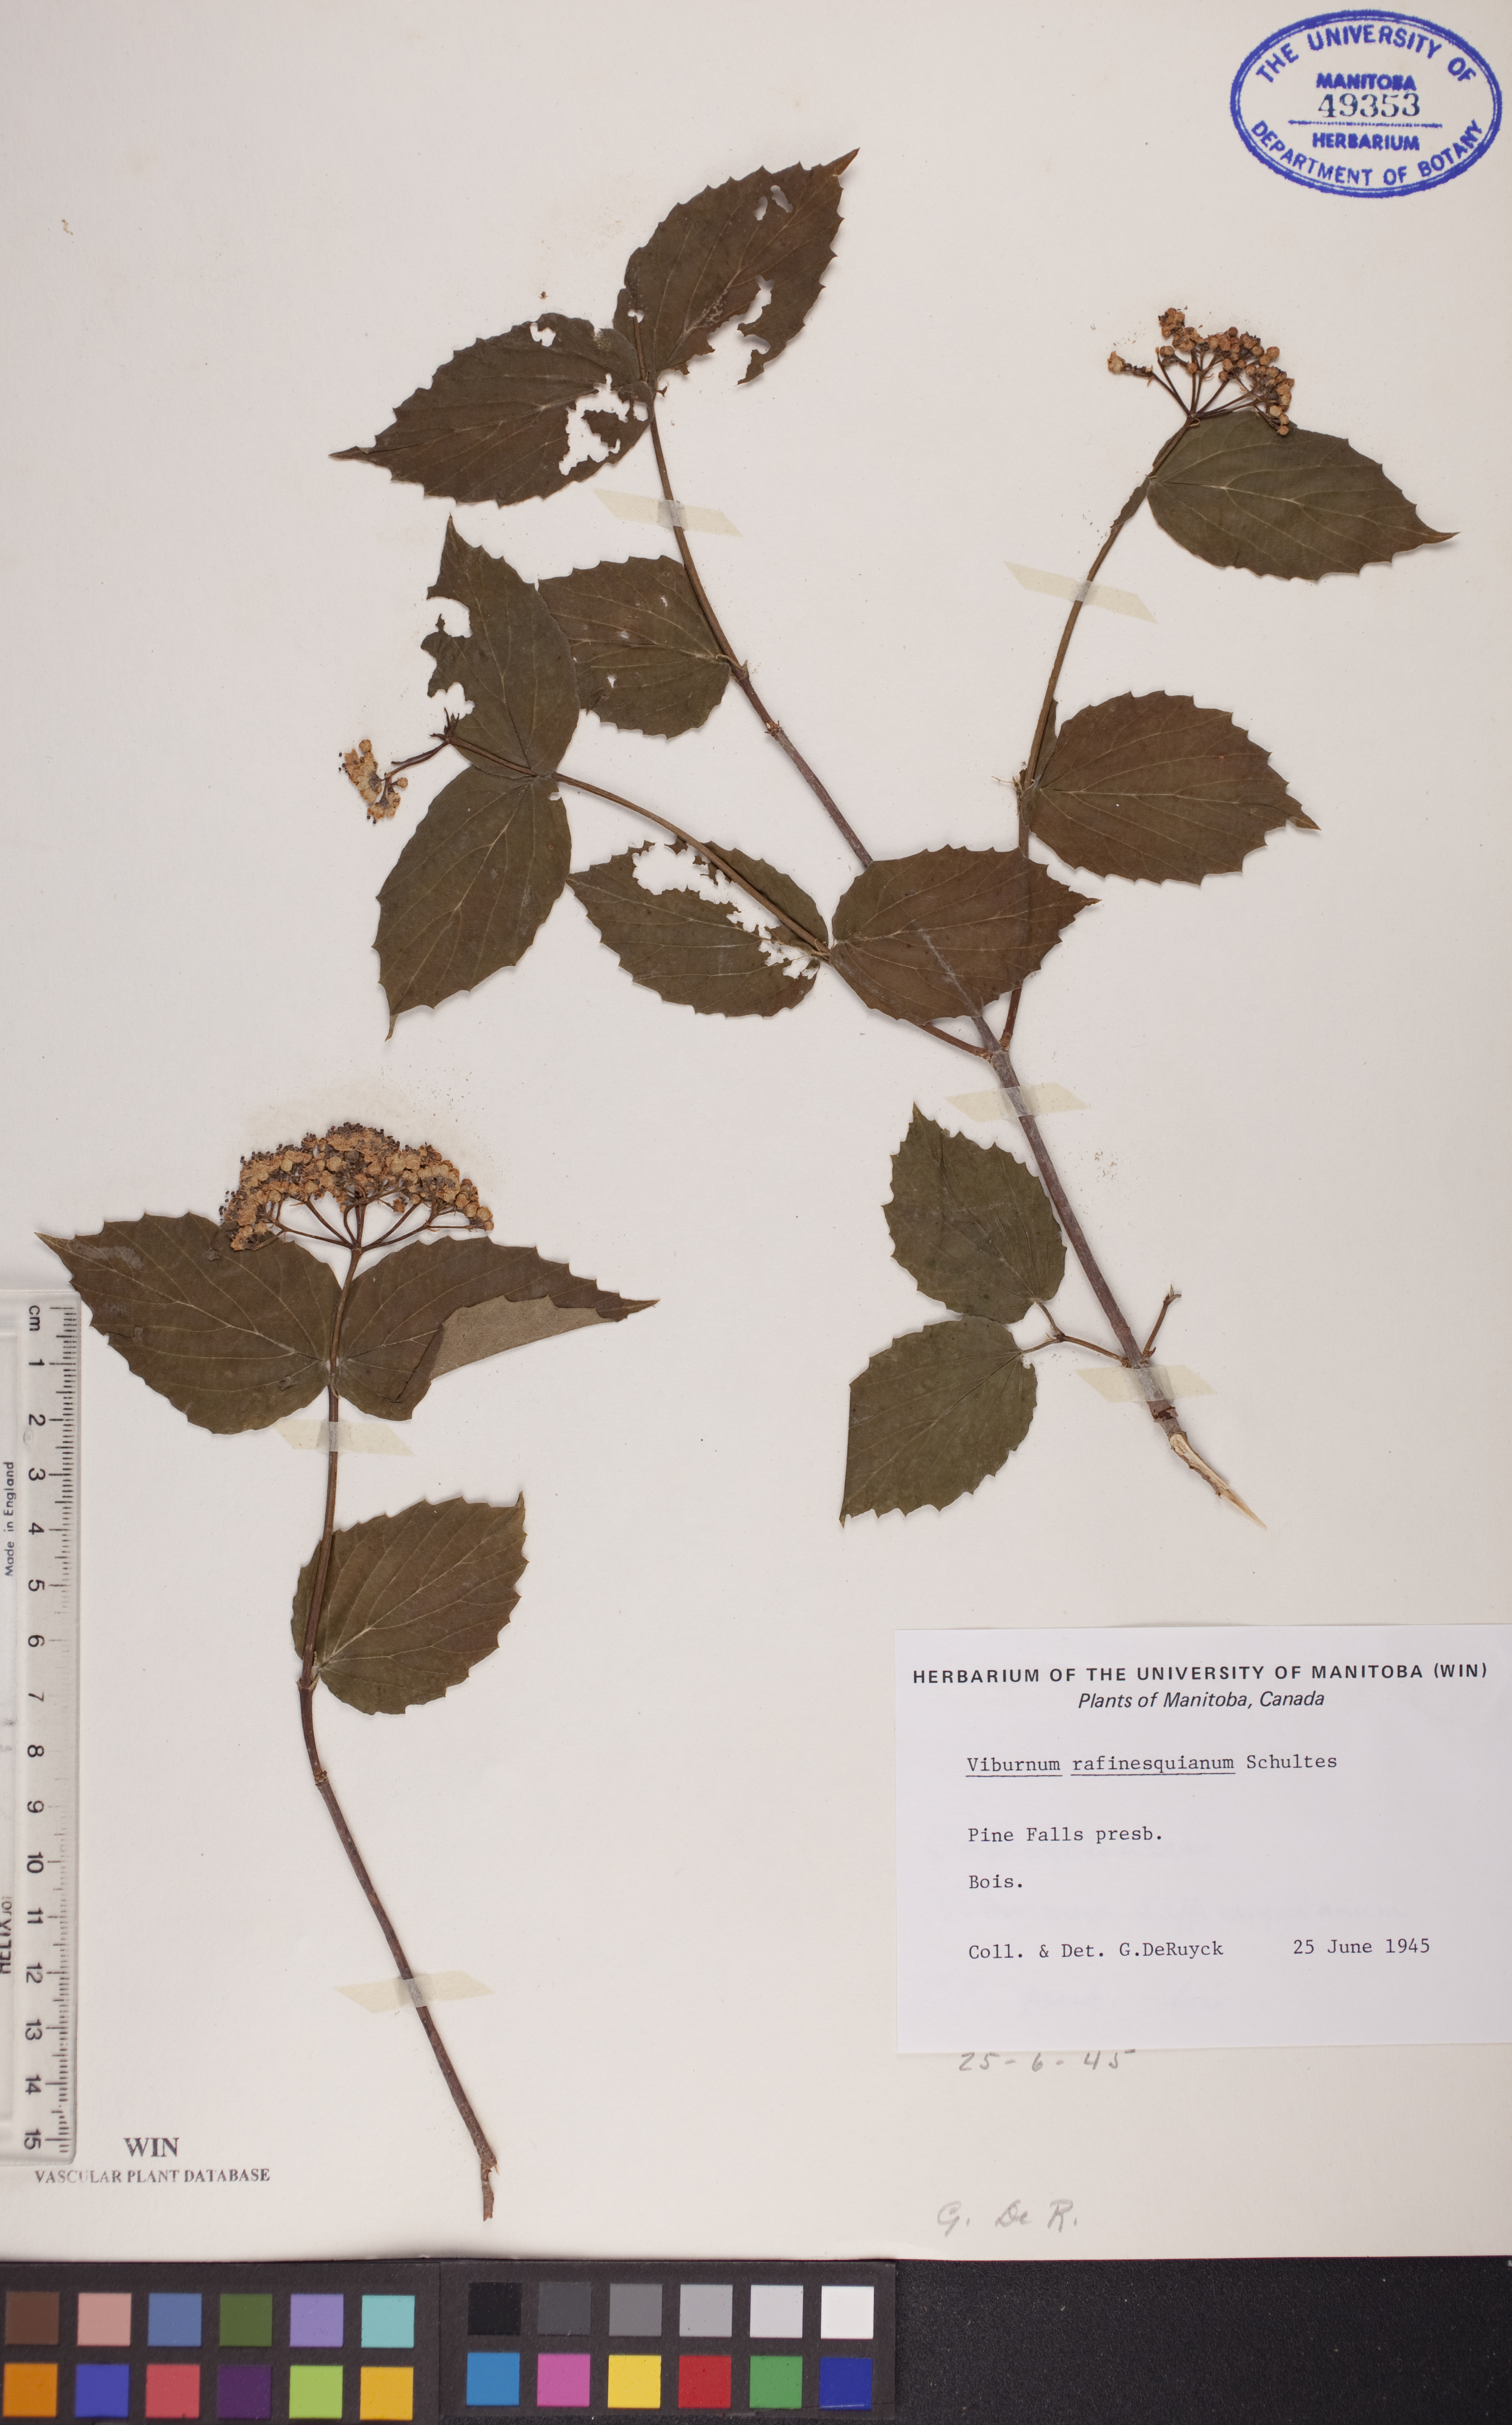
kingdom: Plantae
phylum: Tracheophyta
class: Magnoliopsida
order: Dipsacales
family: Viburnaceae
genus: Viburnum
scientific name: Viburnum rafinesquianum
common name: Downy arrow-wood
